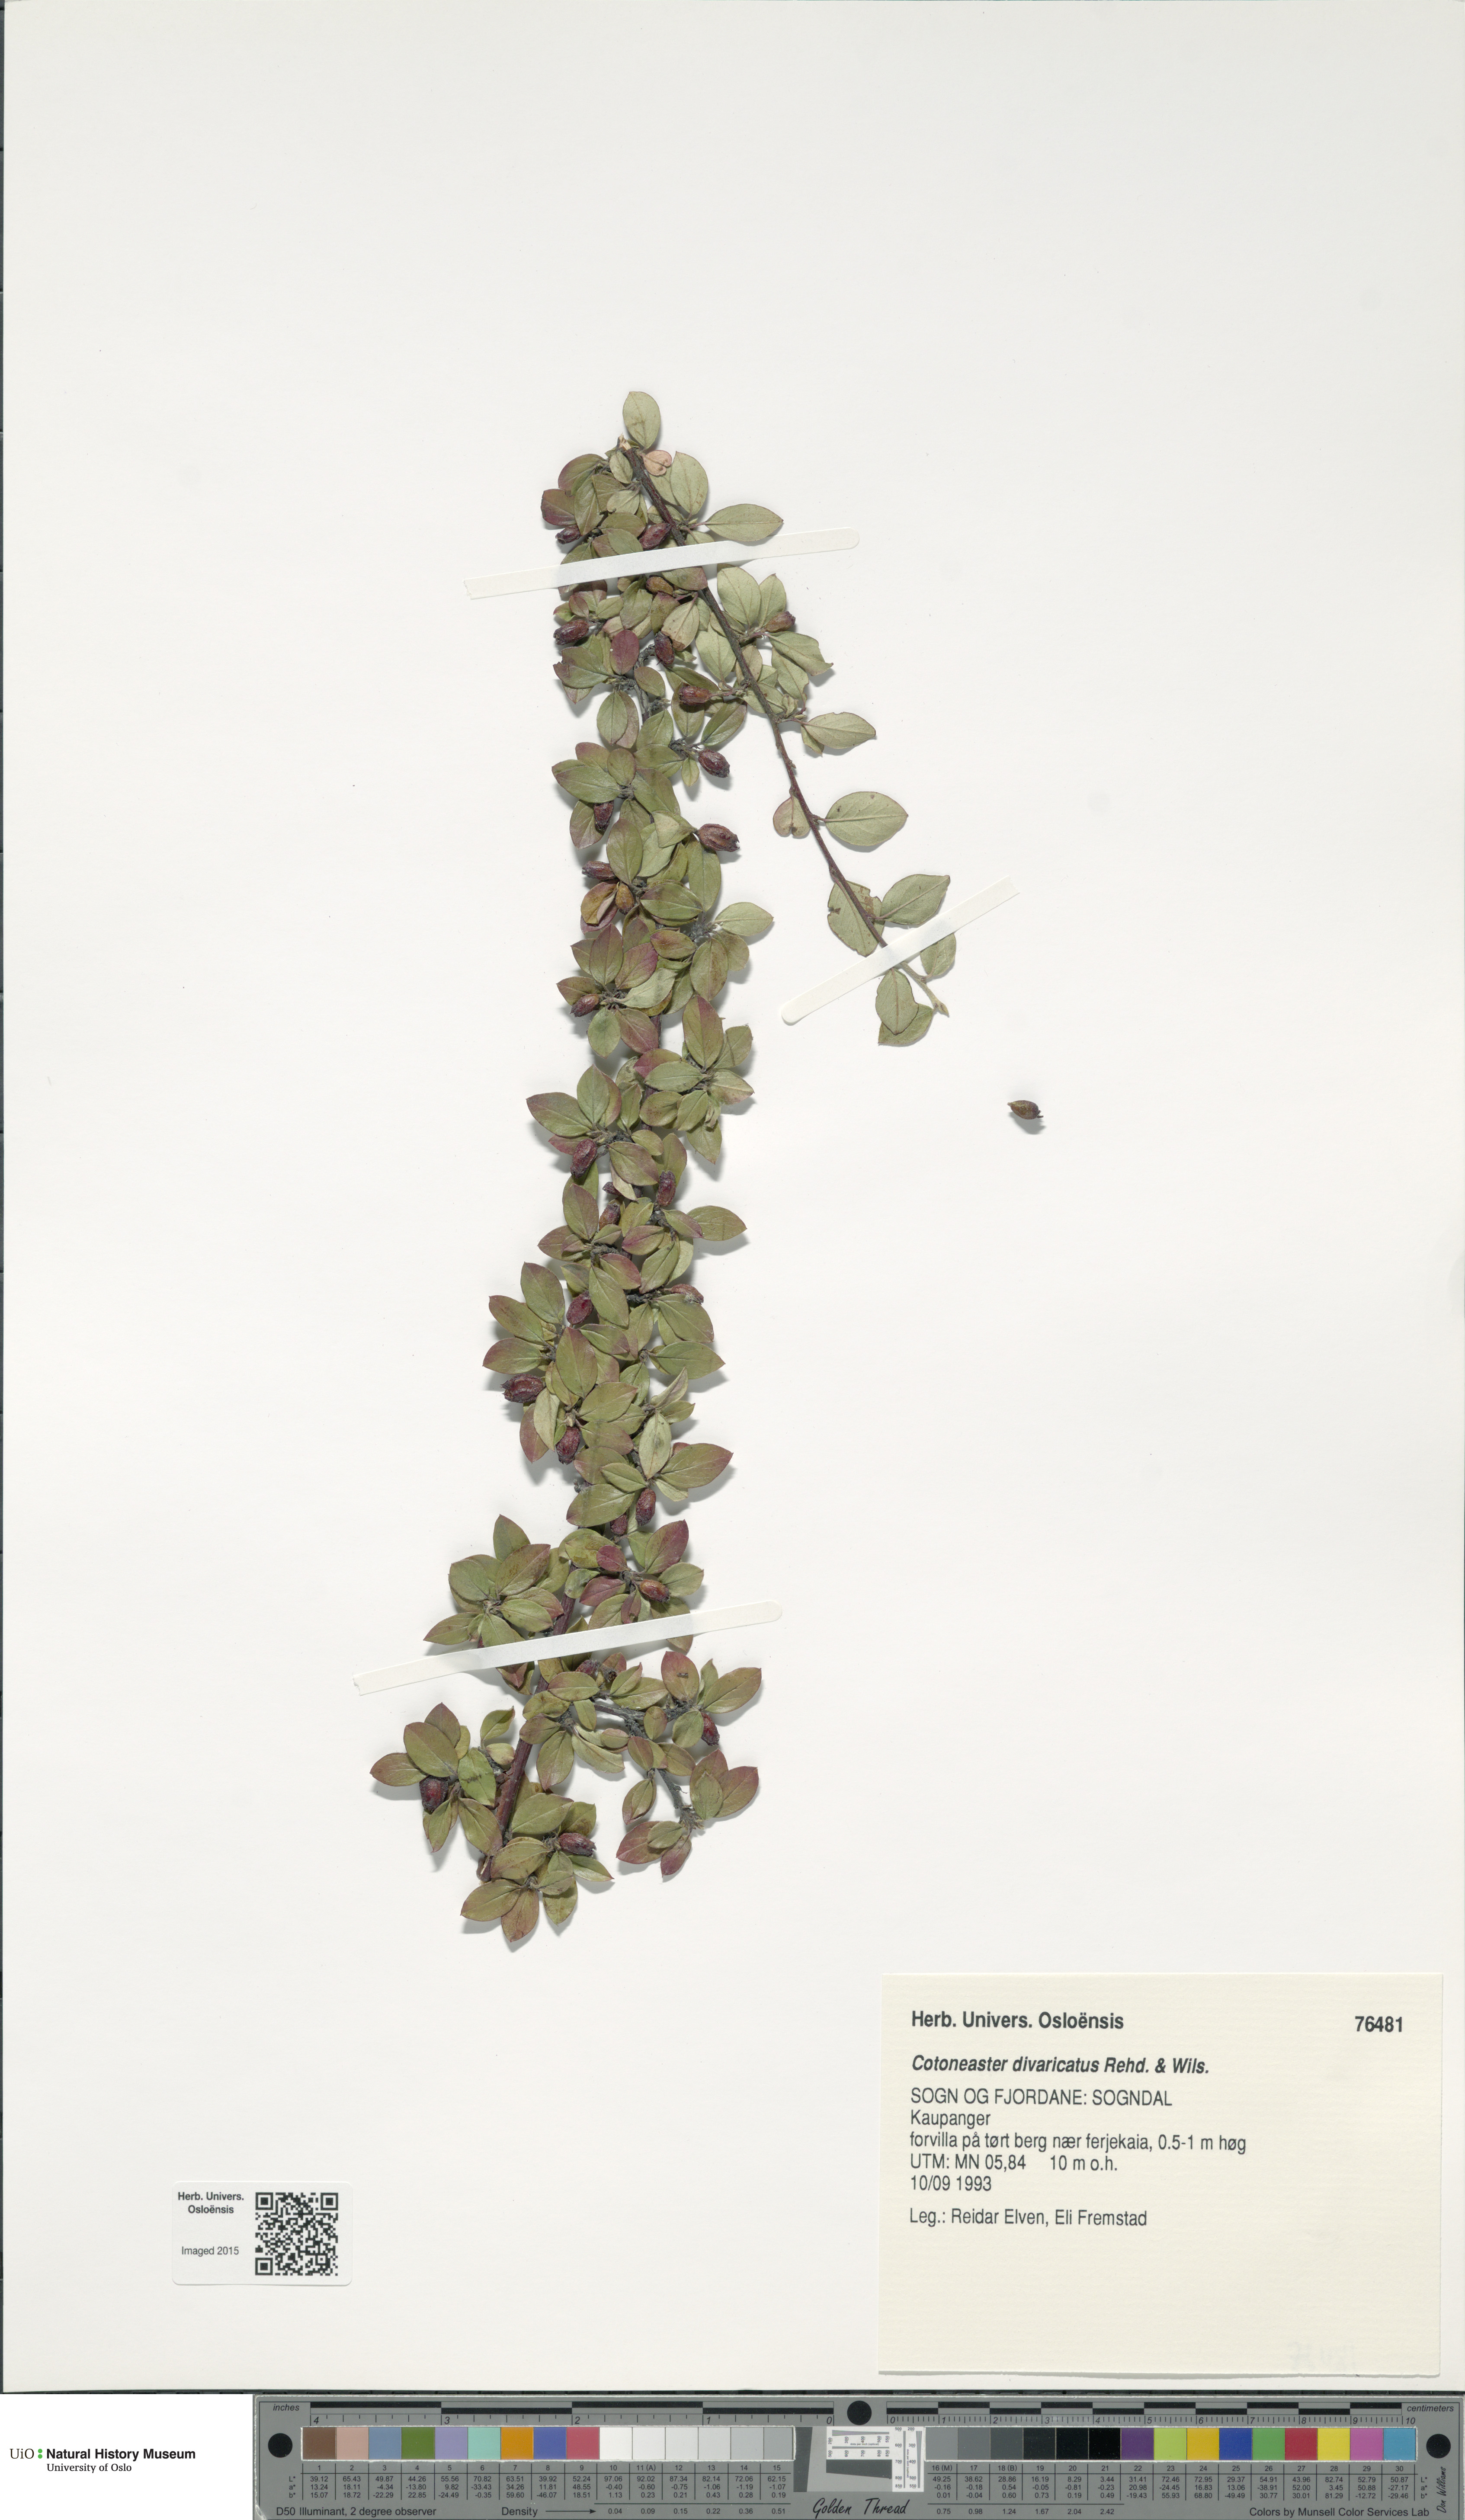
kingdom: Plantae
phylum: Tracheophyta
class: Magnoliopsida
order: Rosales
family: Rosaceae
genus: Cotoneaster
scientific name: Cotoneaster divaricatus
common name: Spreading cotoneaster
